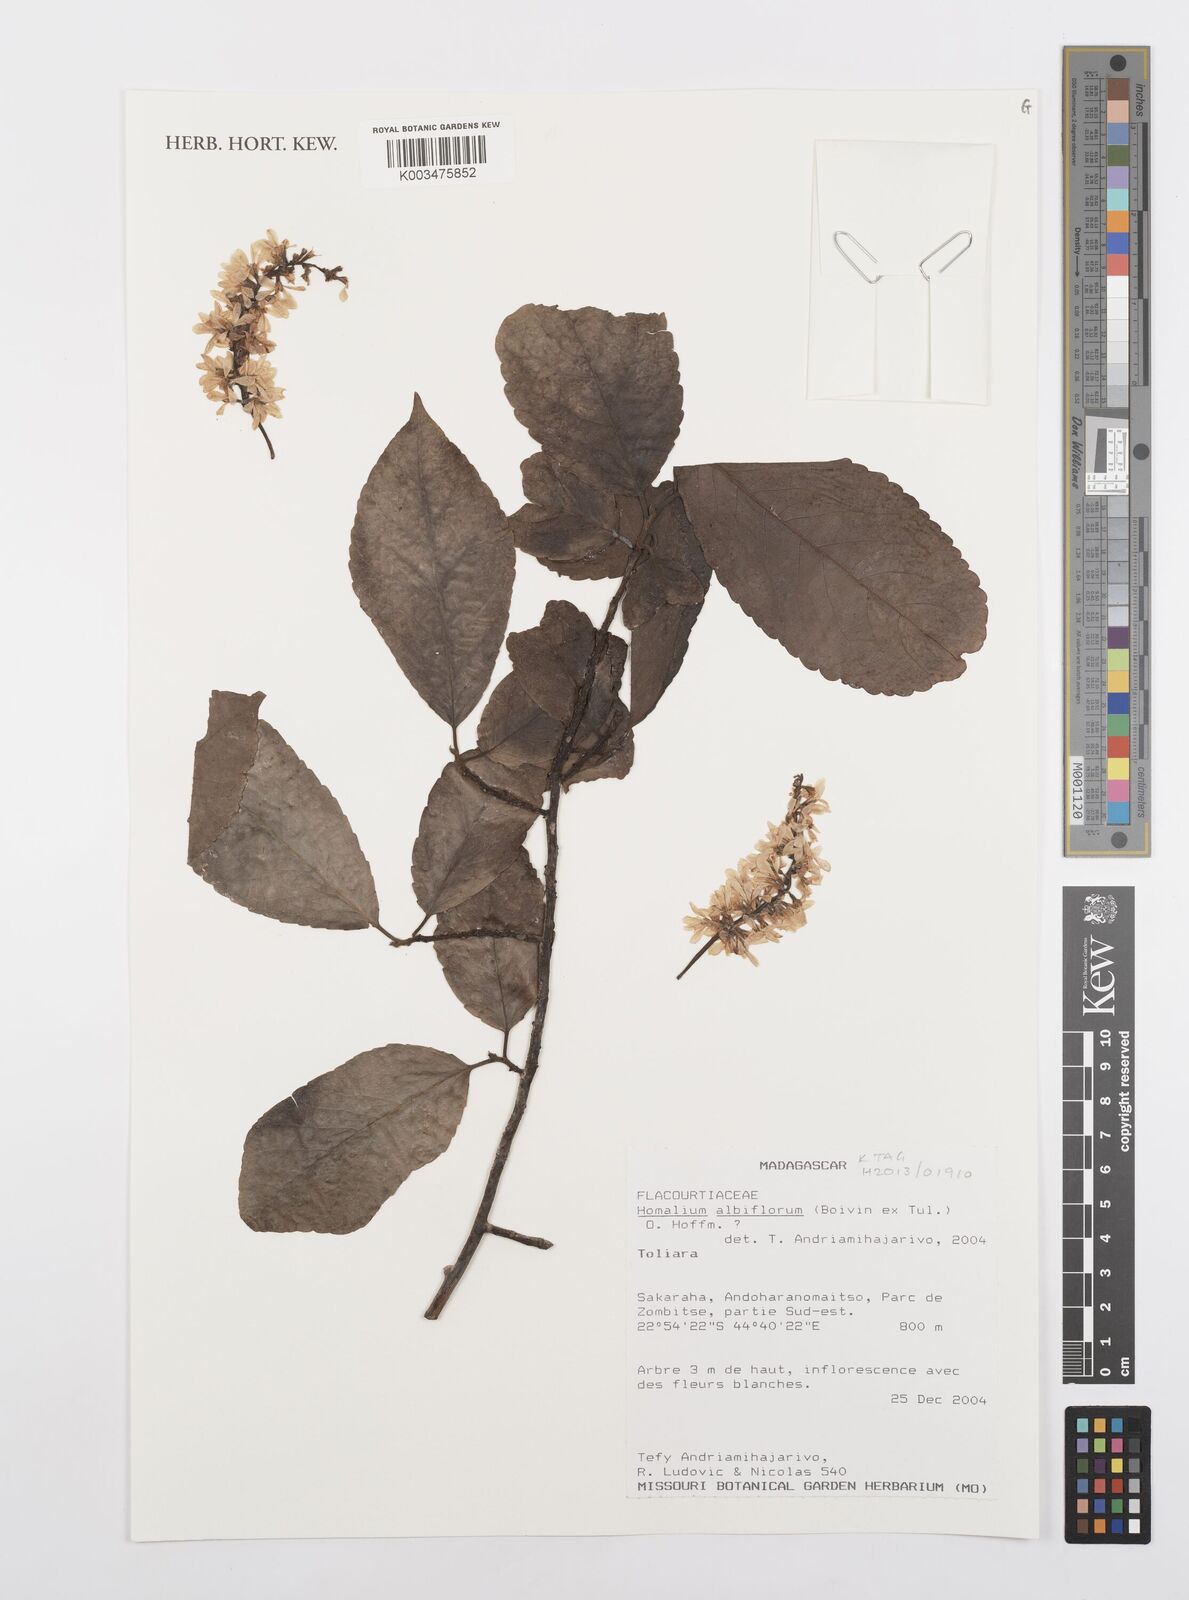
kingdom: Plantae
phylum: Tracheophyta
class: Magnoliopsida
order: Malpighiales
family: Salicaceae
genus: Homalium
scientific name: Homalium albiflorum
